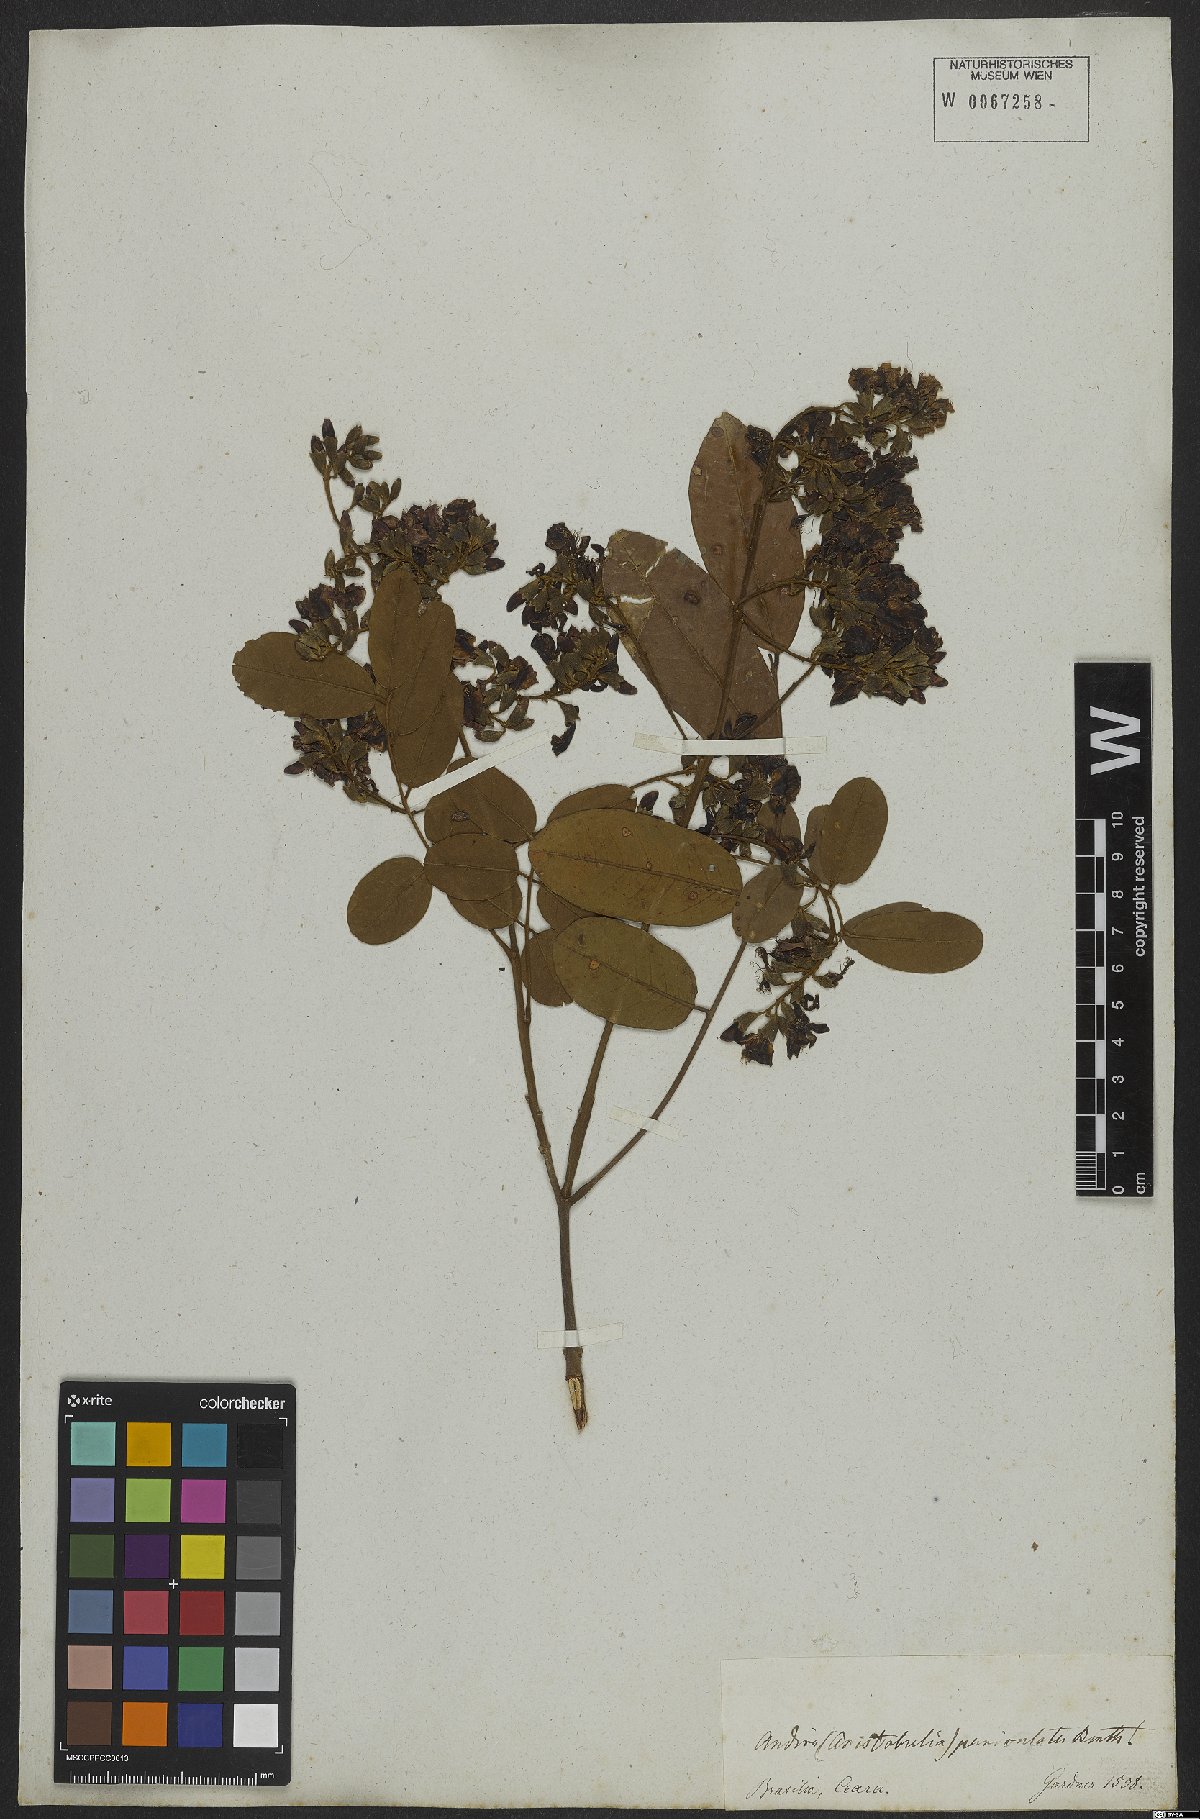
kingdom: Plantae
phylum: Tracheophyta
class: Magnoliopsida
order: Fabales
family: Fabaceae
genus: Andira
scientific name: Andira vermifuga
